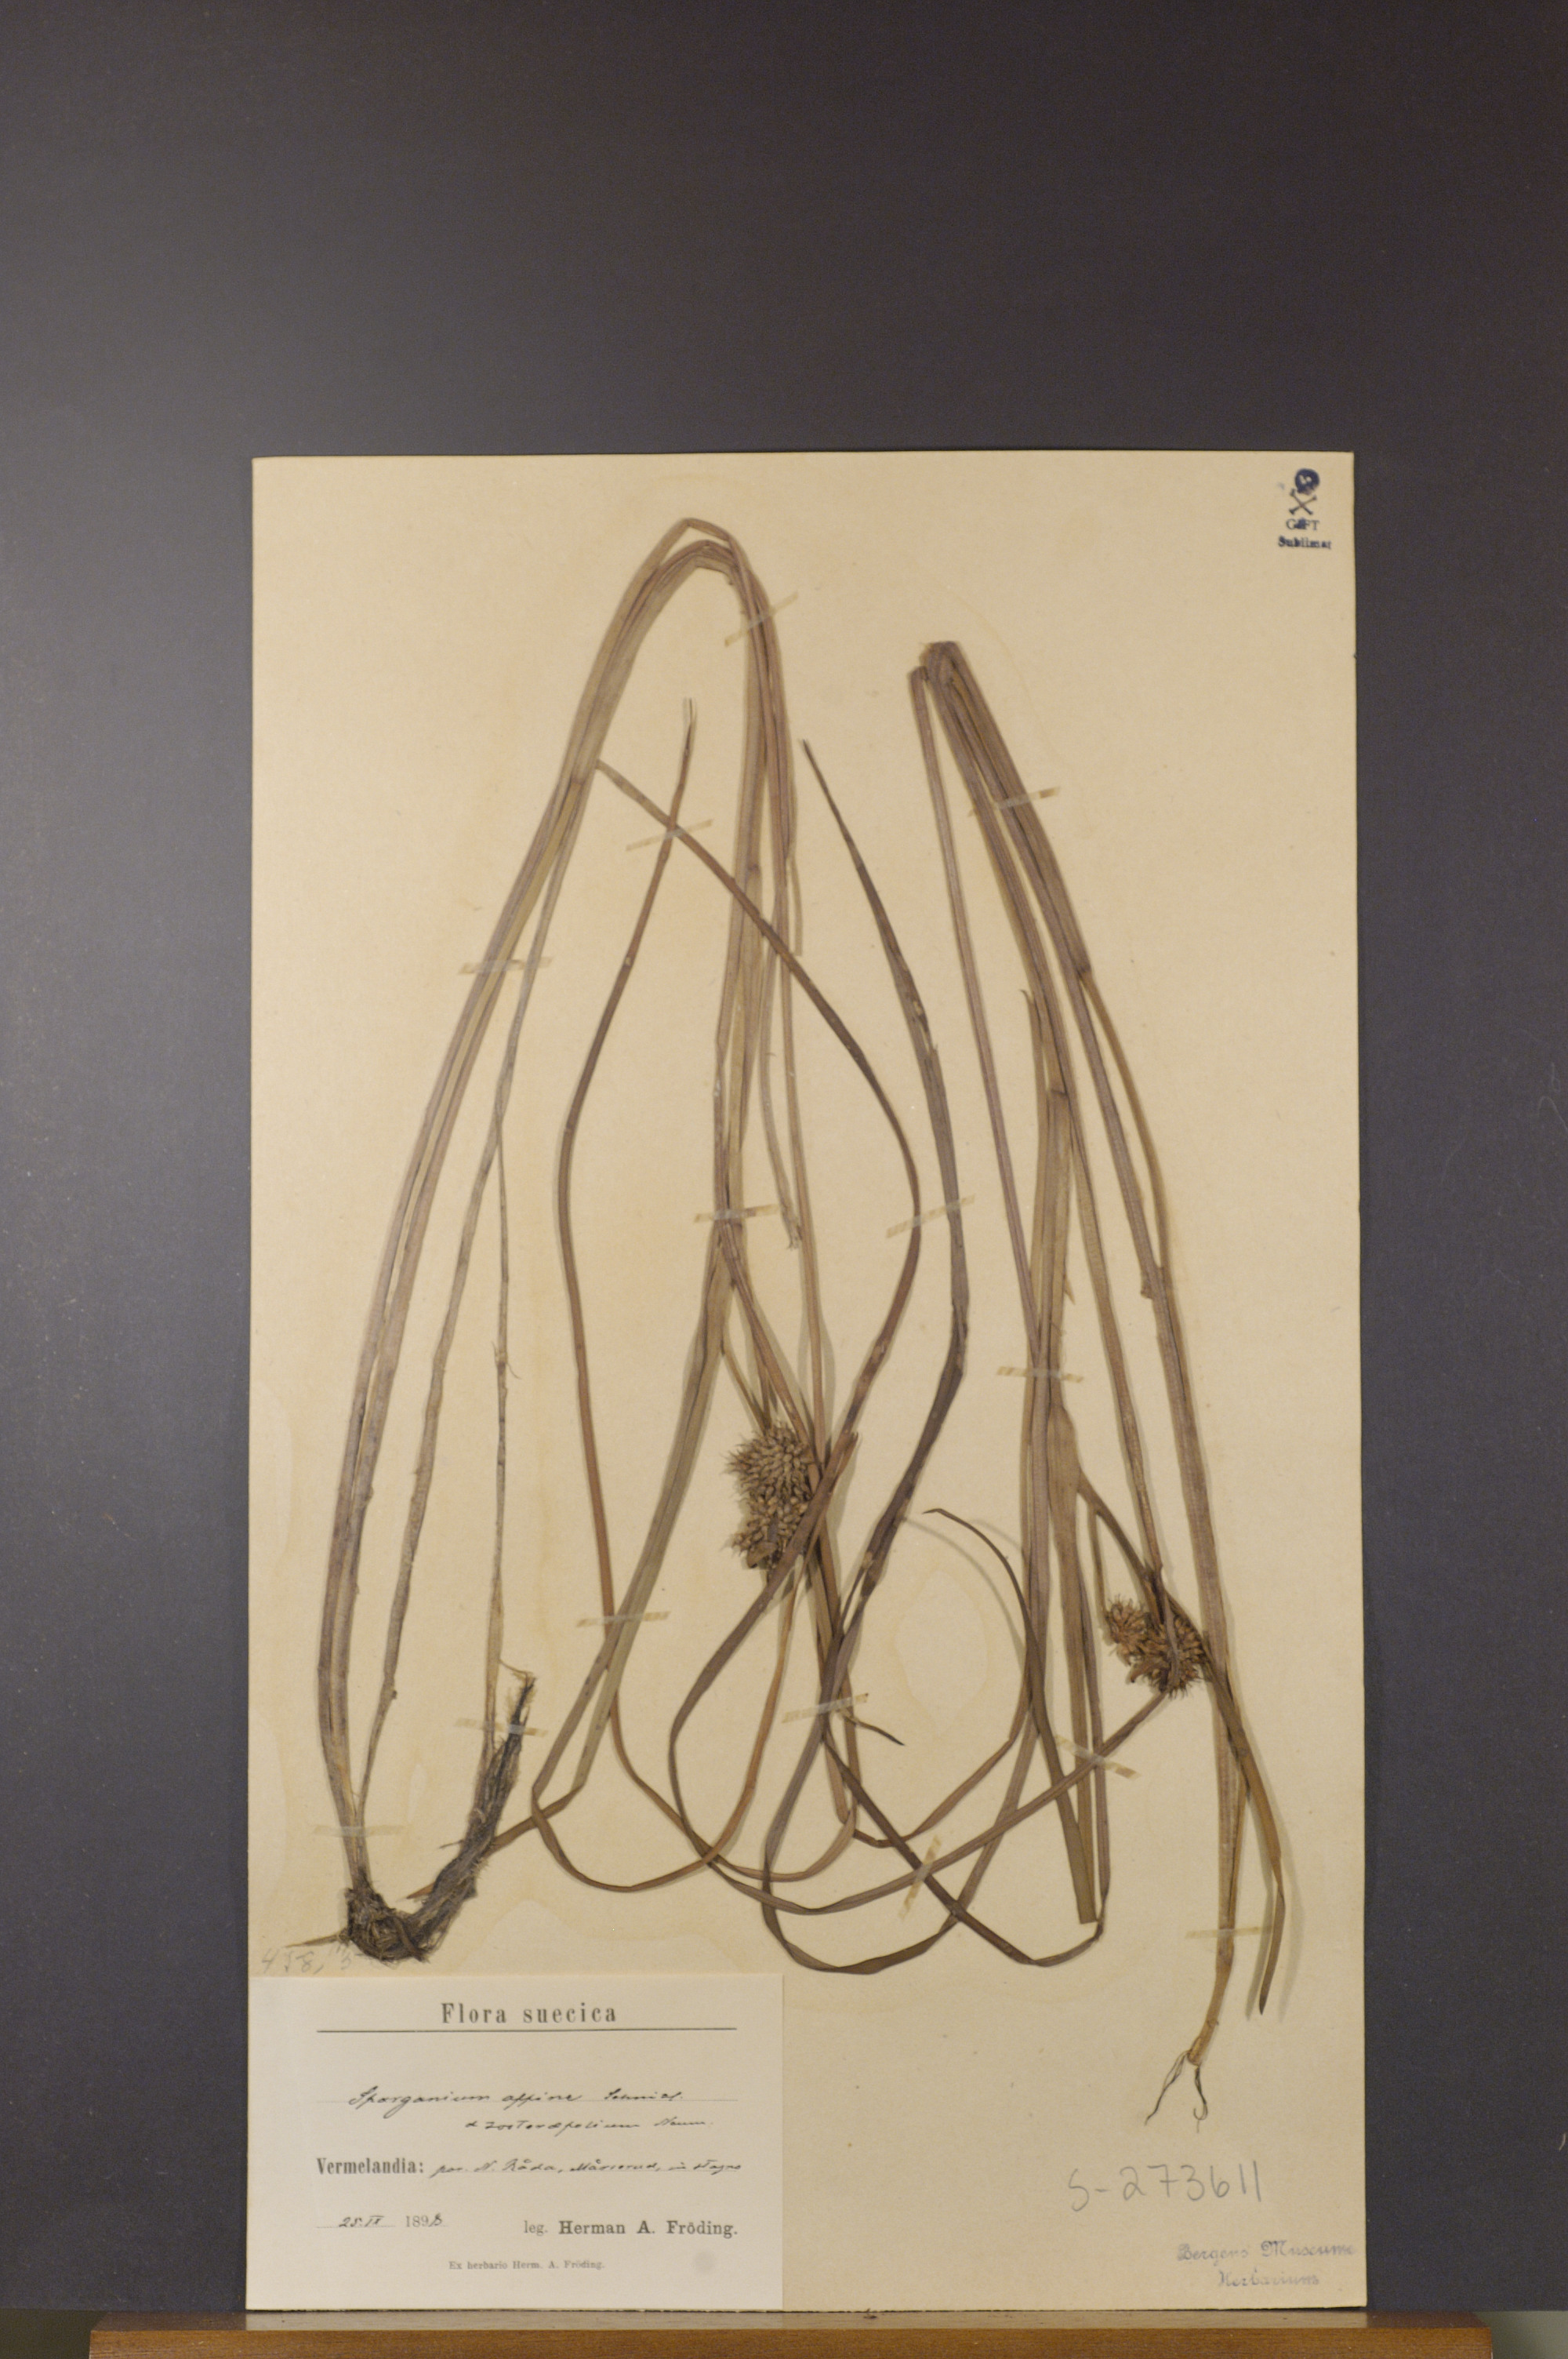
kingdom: Plantae
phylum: Tracheophyta
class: Liliopsida
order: Poales
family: Typhaceae
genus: Sparganium
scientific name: Sparganium angustifolium
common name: Floating bur-reed
